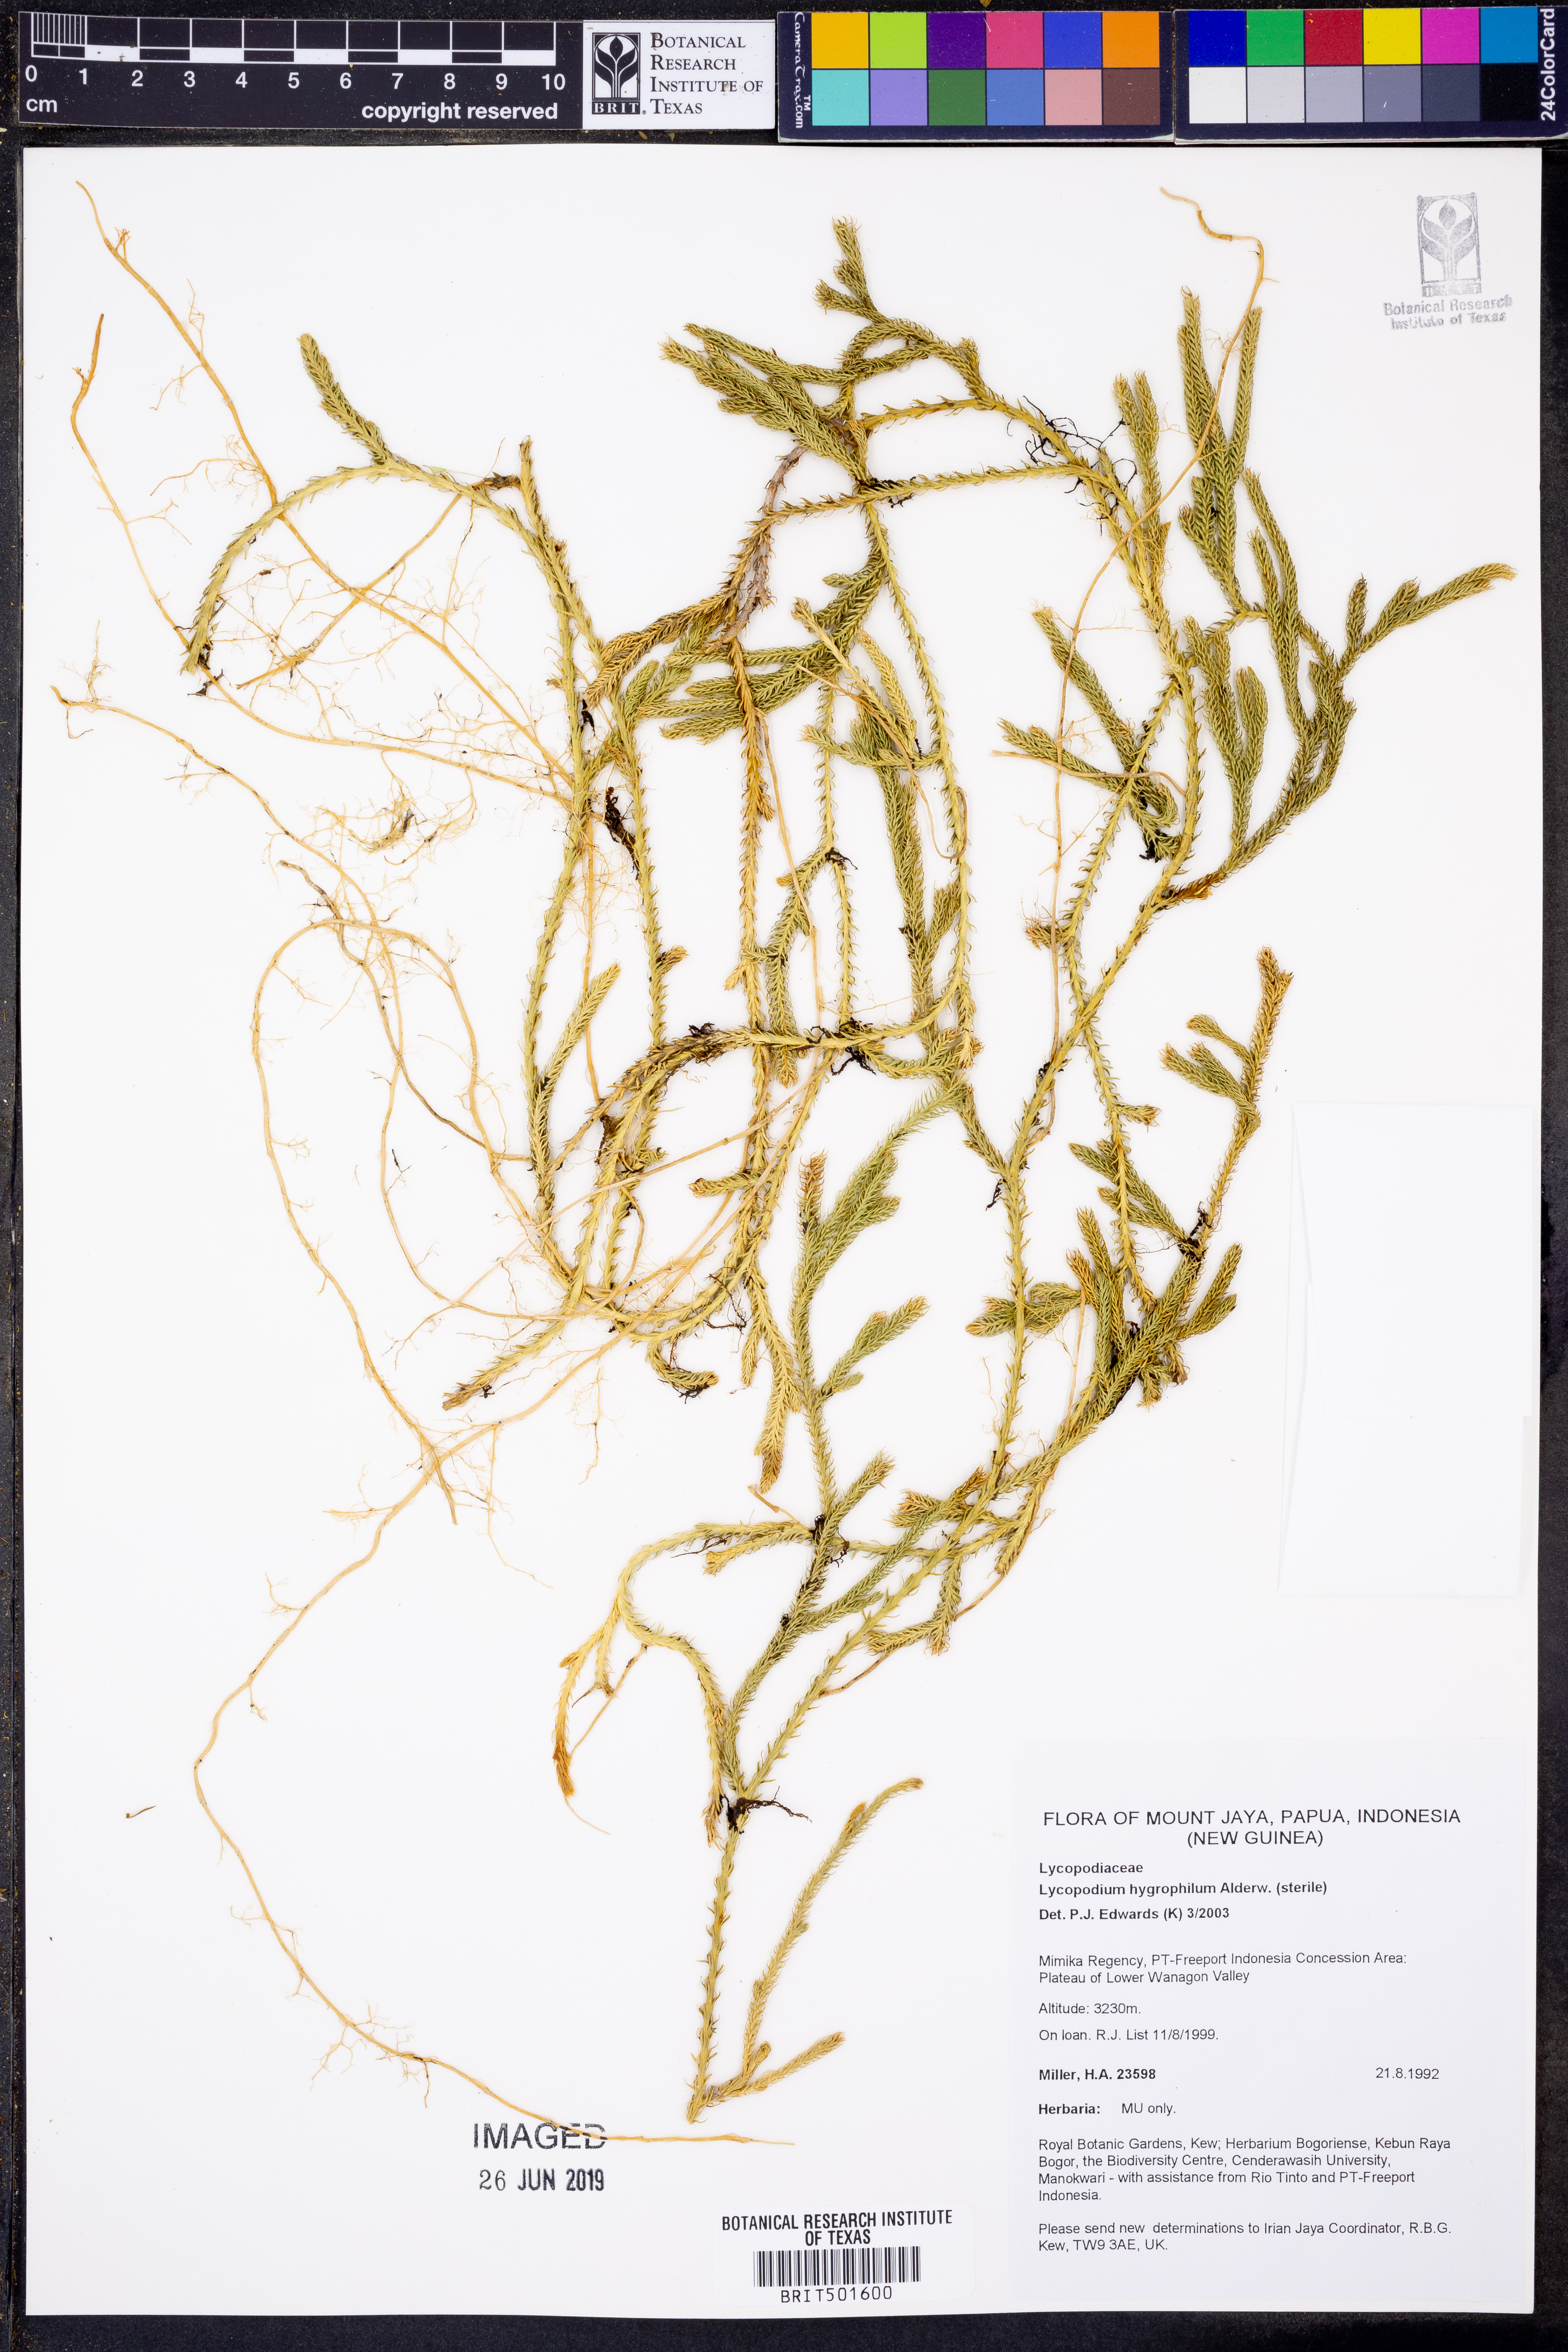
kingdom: Plantae
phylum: Tracheophyta
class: Lycopodiopsida
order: Lycopodiales
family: Lycopodiaceae
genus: Lycopodium
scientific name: Lycopodium hygrophilum
